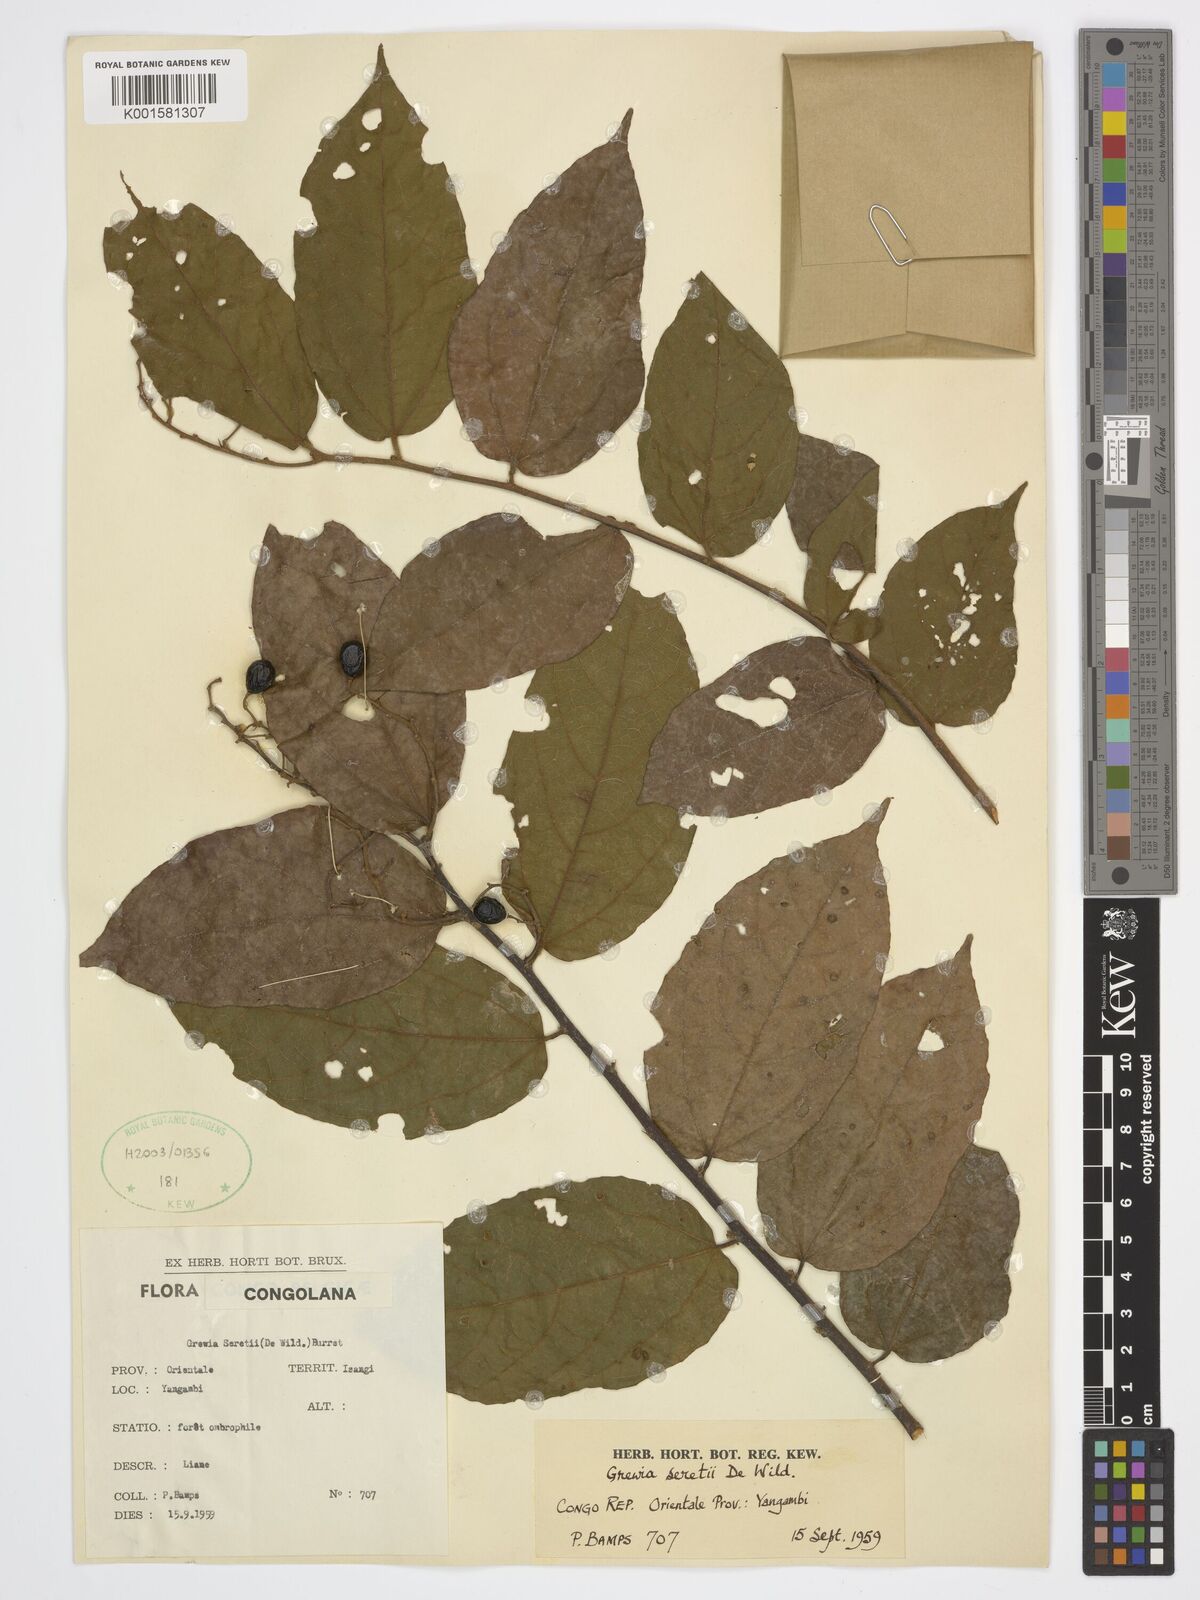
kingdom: Plantae
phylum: Tracheophyta
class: Magnoliopsida
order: Malvales
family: Malvaceae
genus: Microcos
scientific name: Microcos seretii
